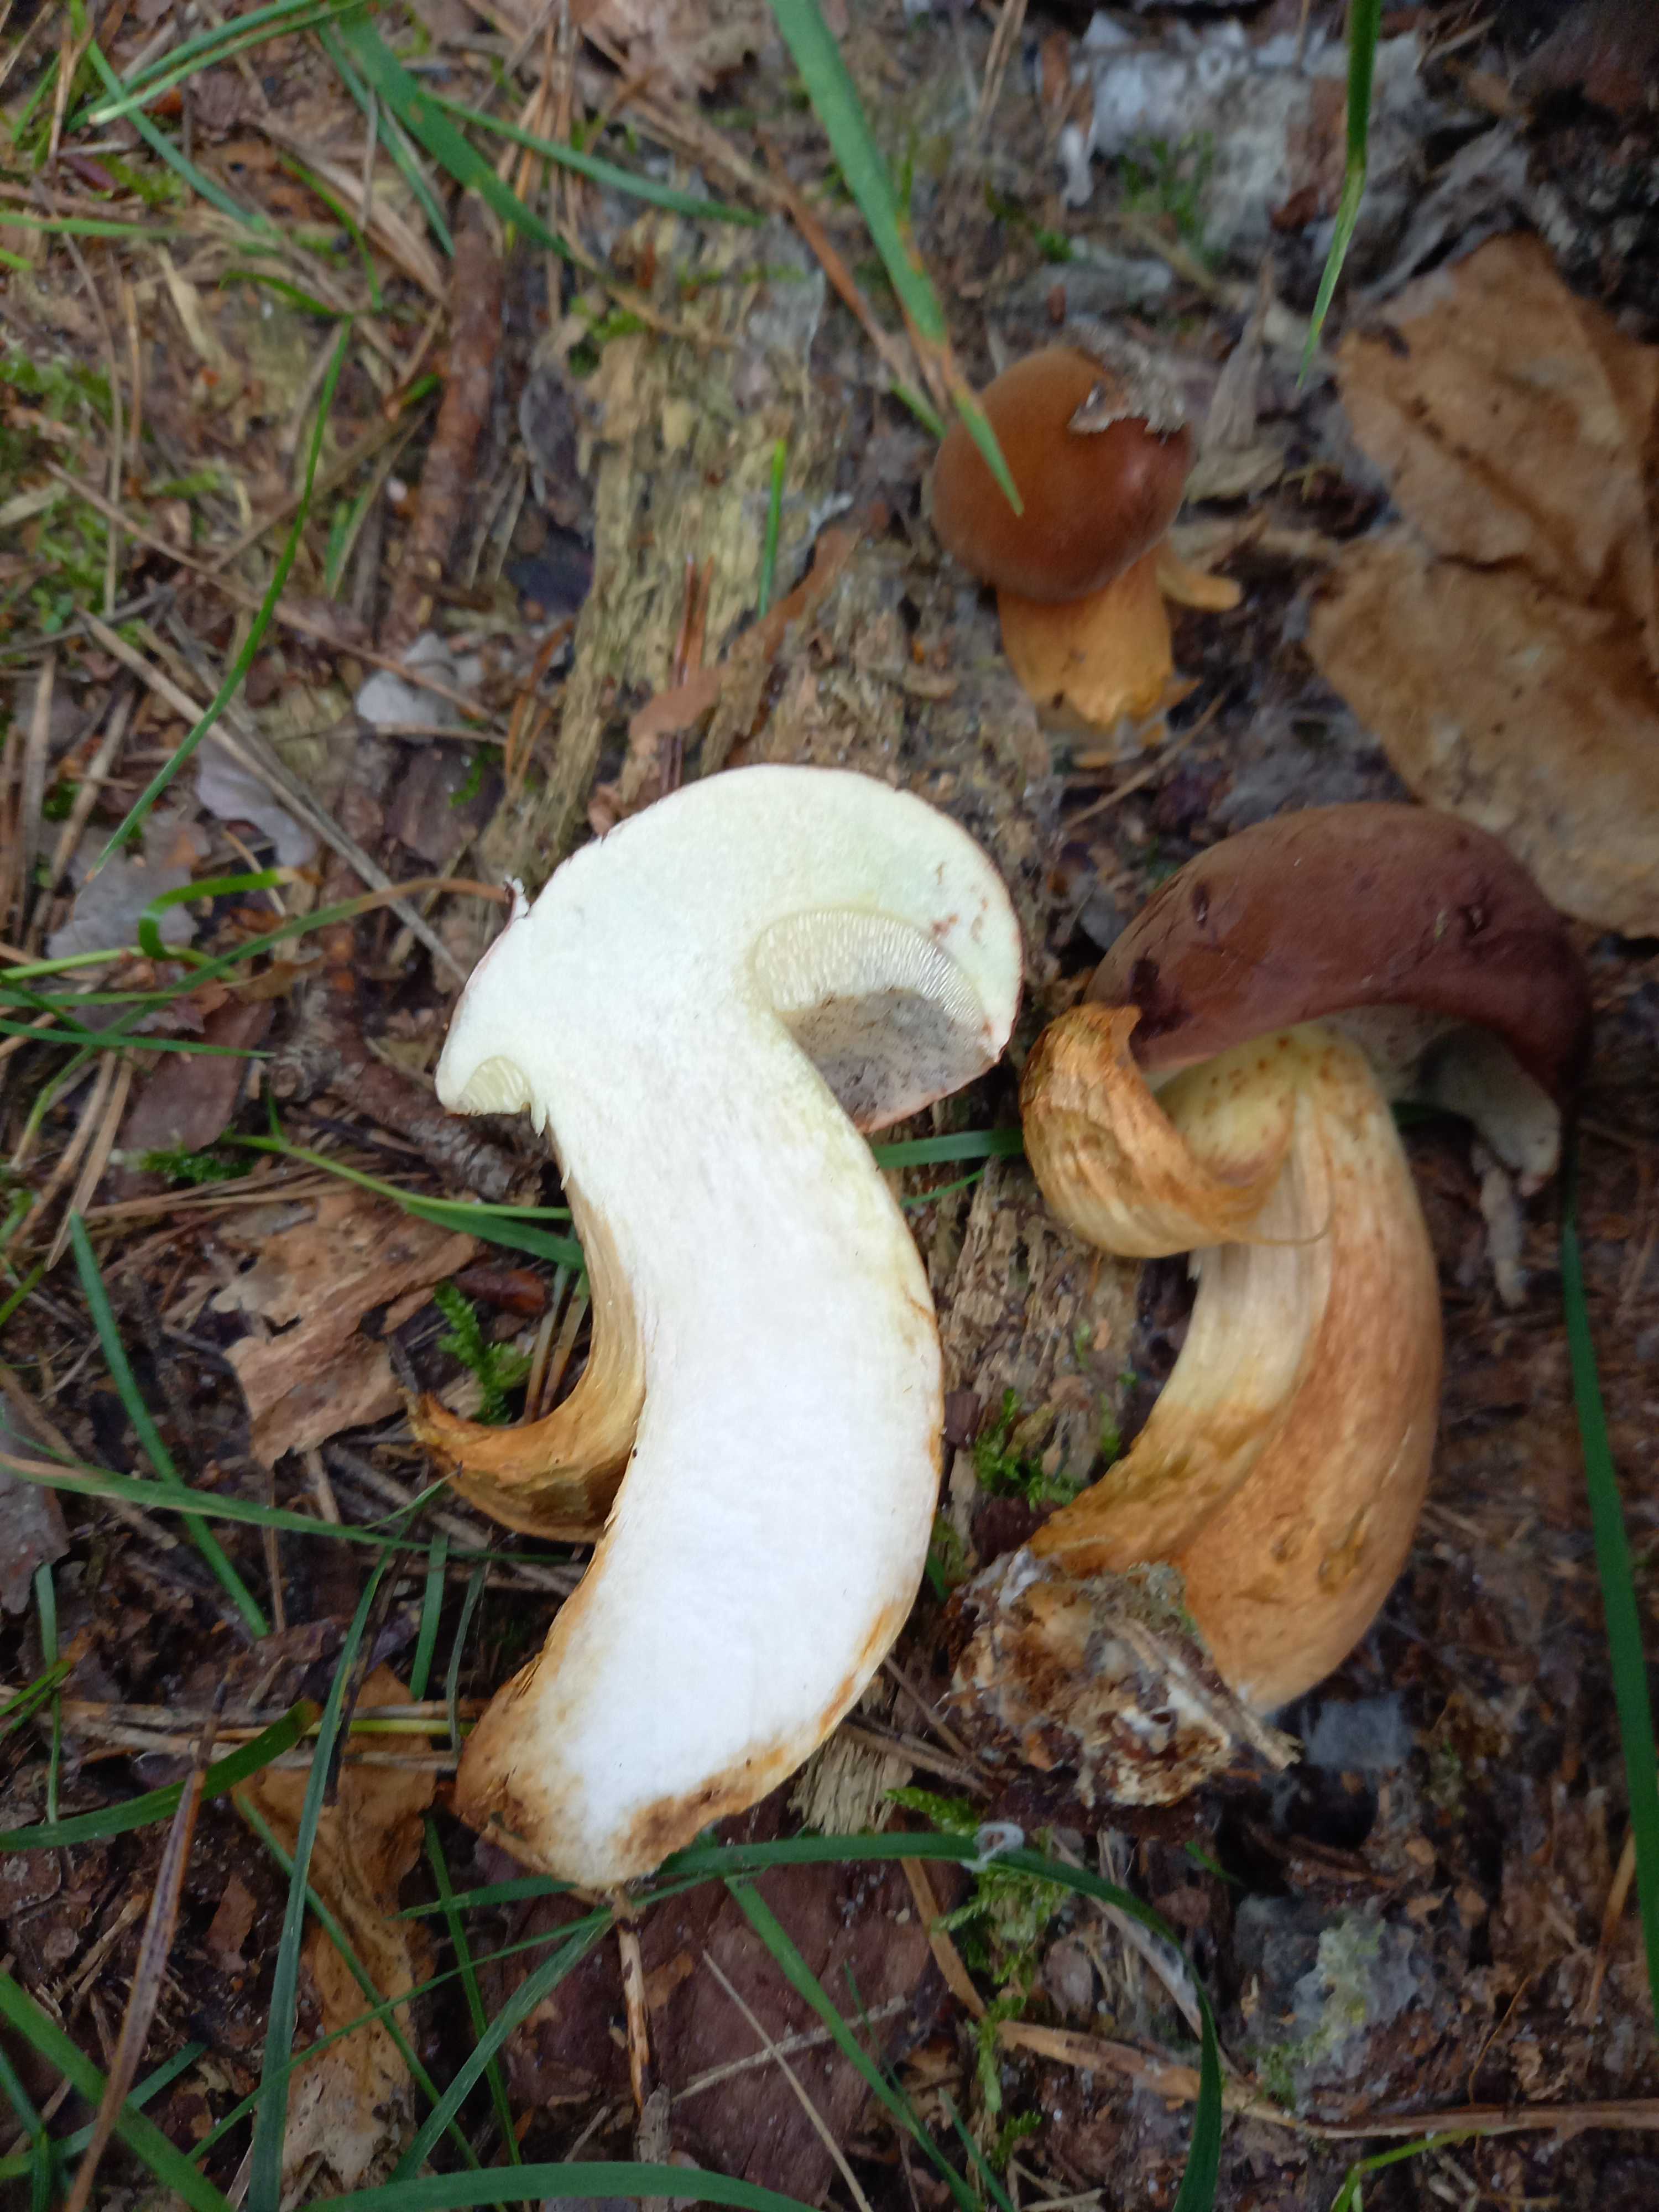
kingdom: Fungi
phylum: Basidiomycota
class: Agaricomycetes
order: Boletales
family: Boletaceae
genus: Imleria
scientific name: Imleria badia
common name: brunstokket rørhat
